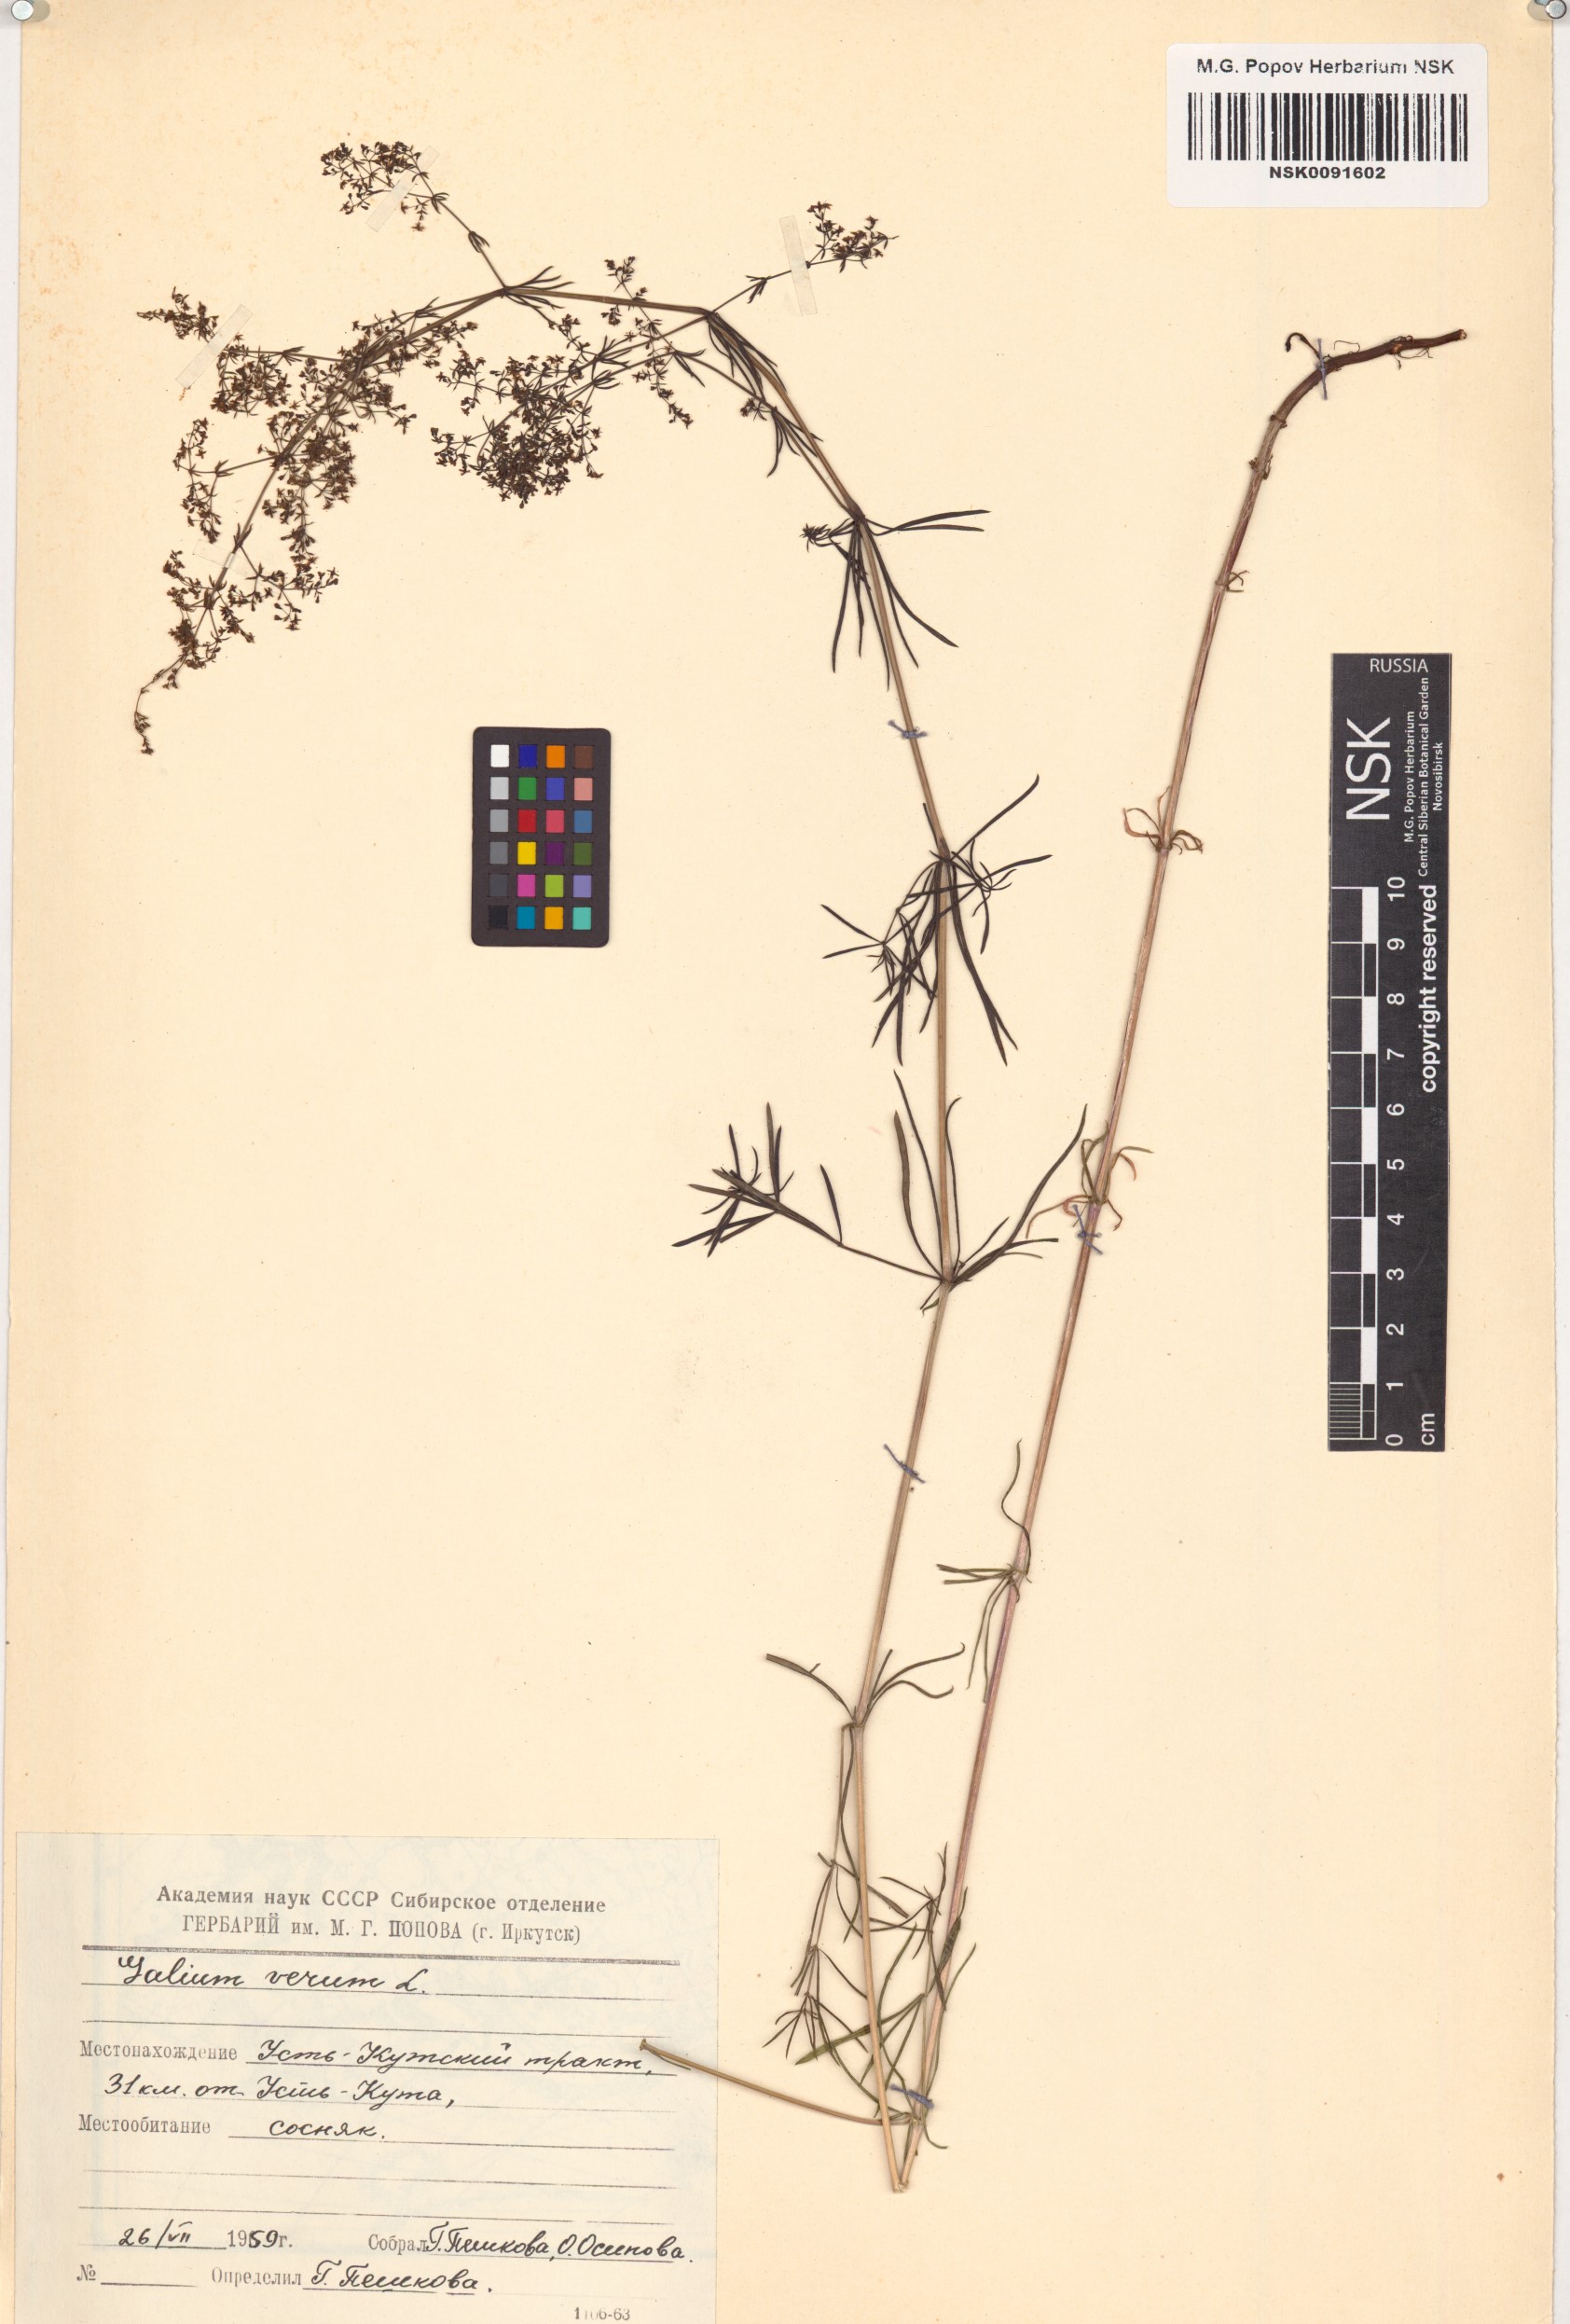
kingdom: Plantae
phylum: Tracheophyta
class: Magnoliopsida
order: Gentianales
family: Rubiaceae
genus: Galium
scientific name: Galium verum
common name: Lady's bedstraw
